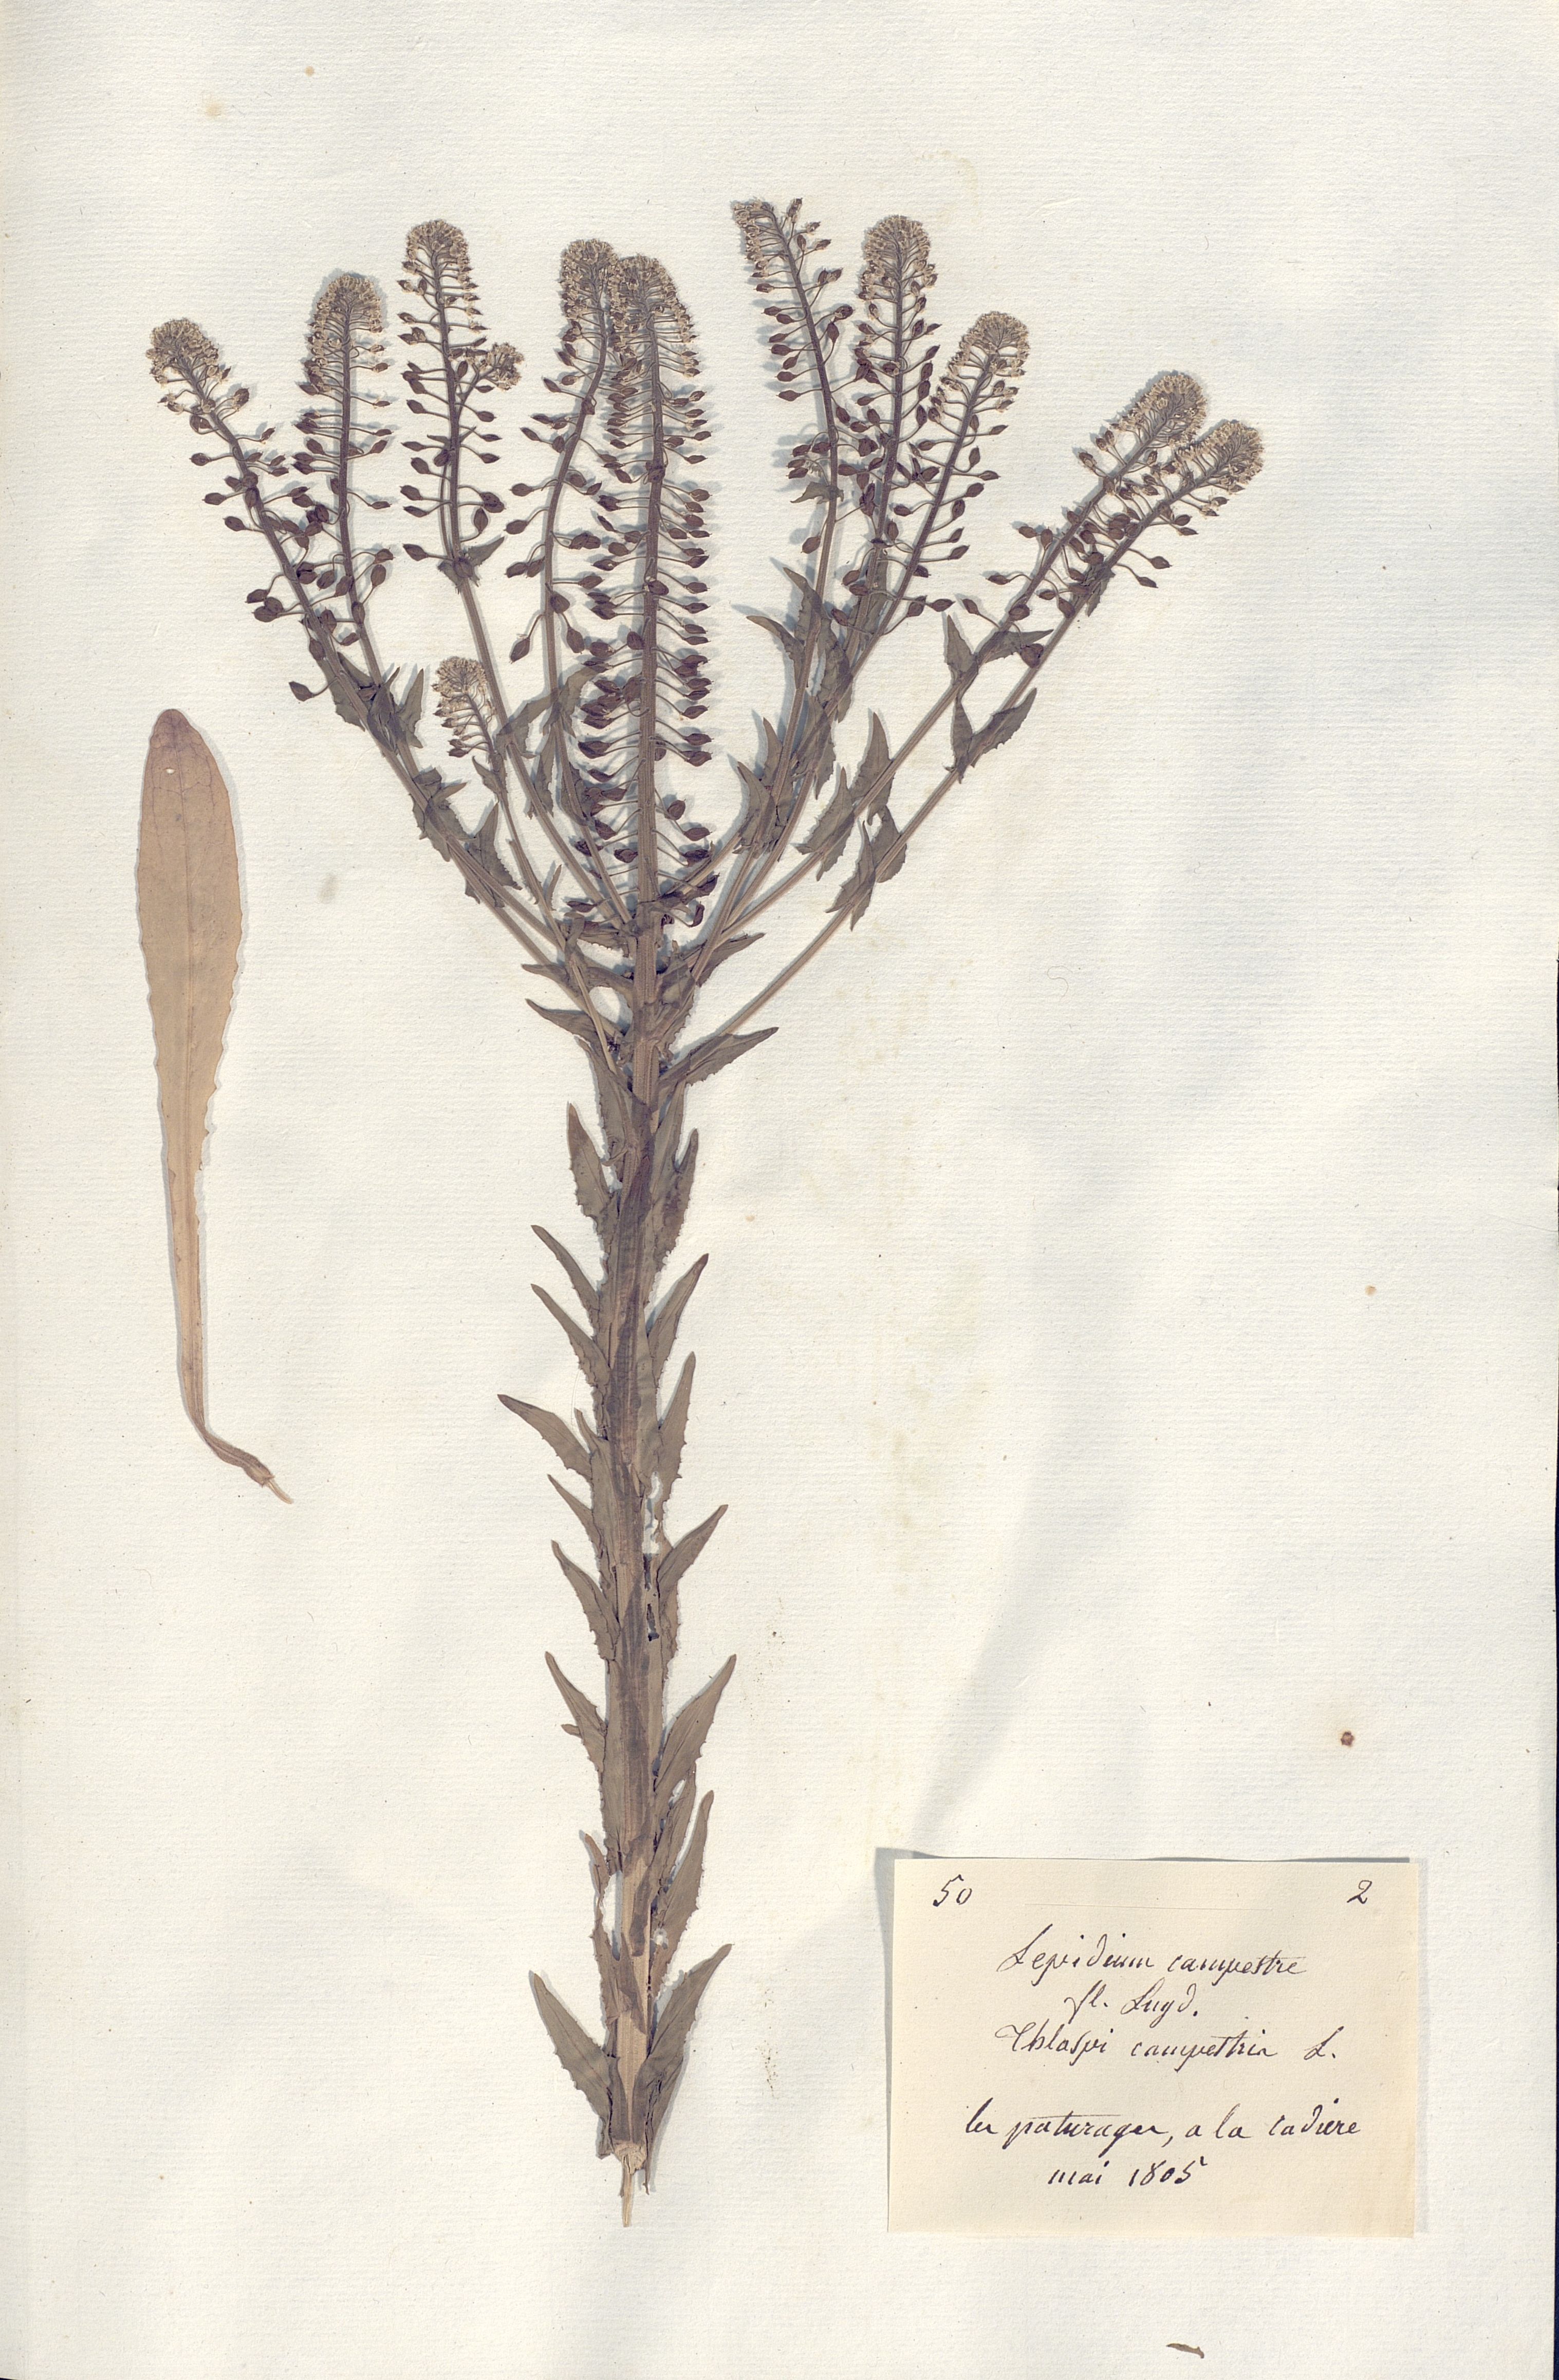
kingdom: Plantae
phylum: Tracheophyta
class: Magnoliopsida
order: Brassicales
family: Brassicaceae
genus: Lepidium
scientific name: Lepidium campestre
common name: Field pepperwort
